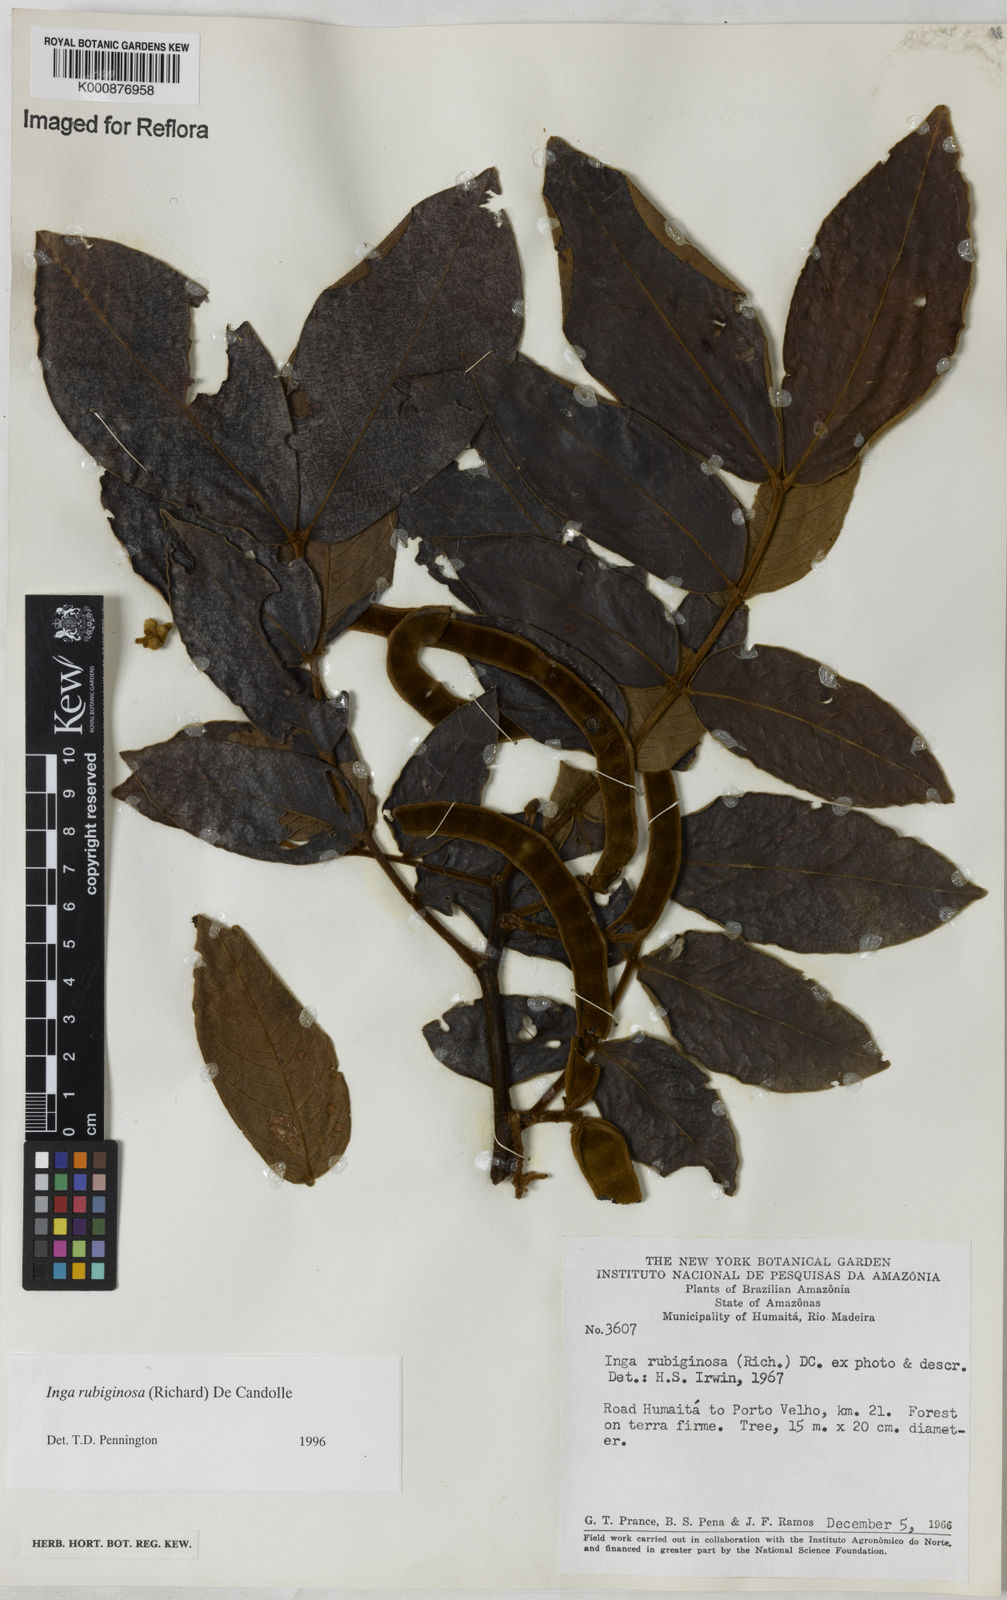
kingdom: Plantae
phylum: Tracheophyta
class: Magnoliopsida
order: Fabales
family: Fabaceae
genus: Inga
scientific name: Inga rubiginosa
